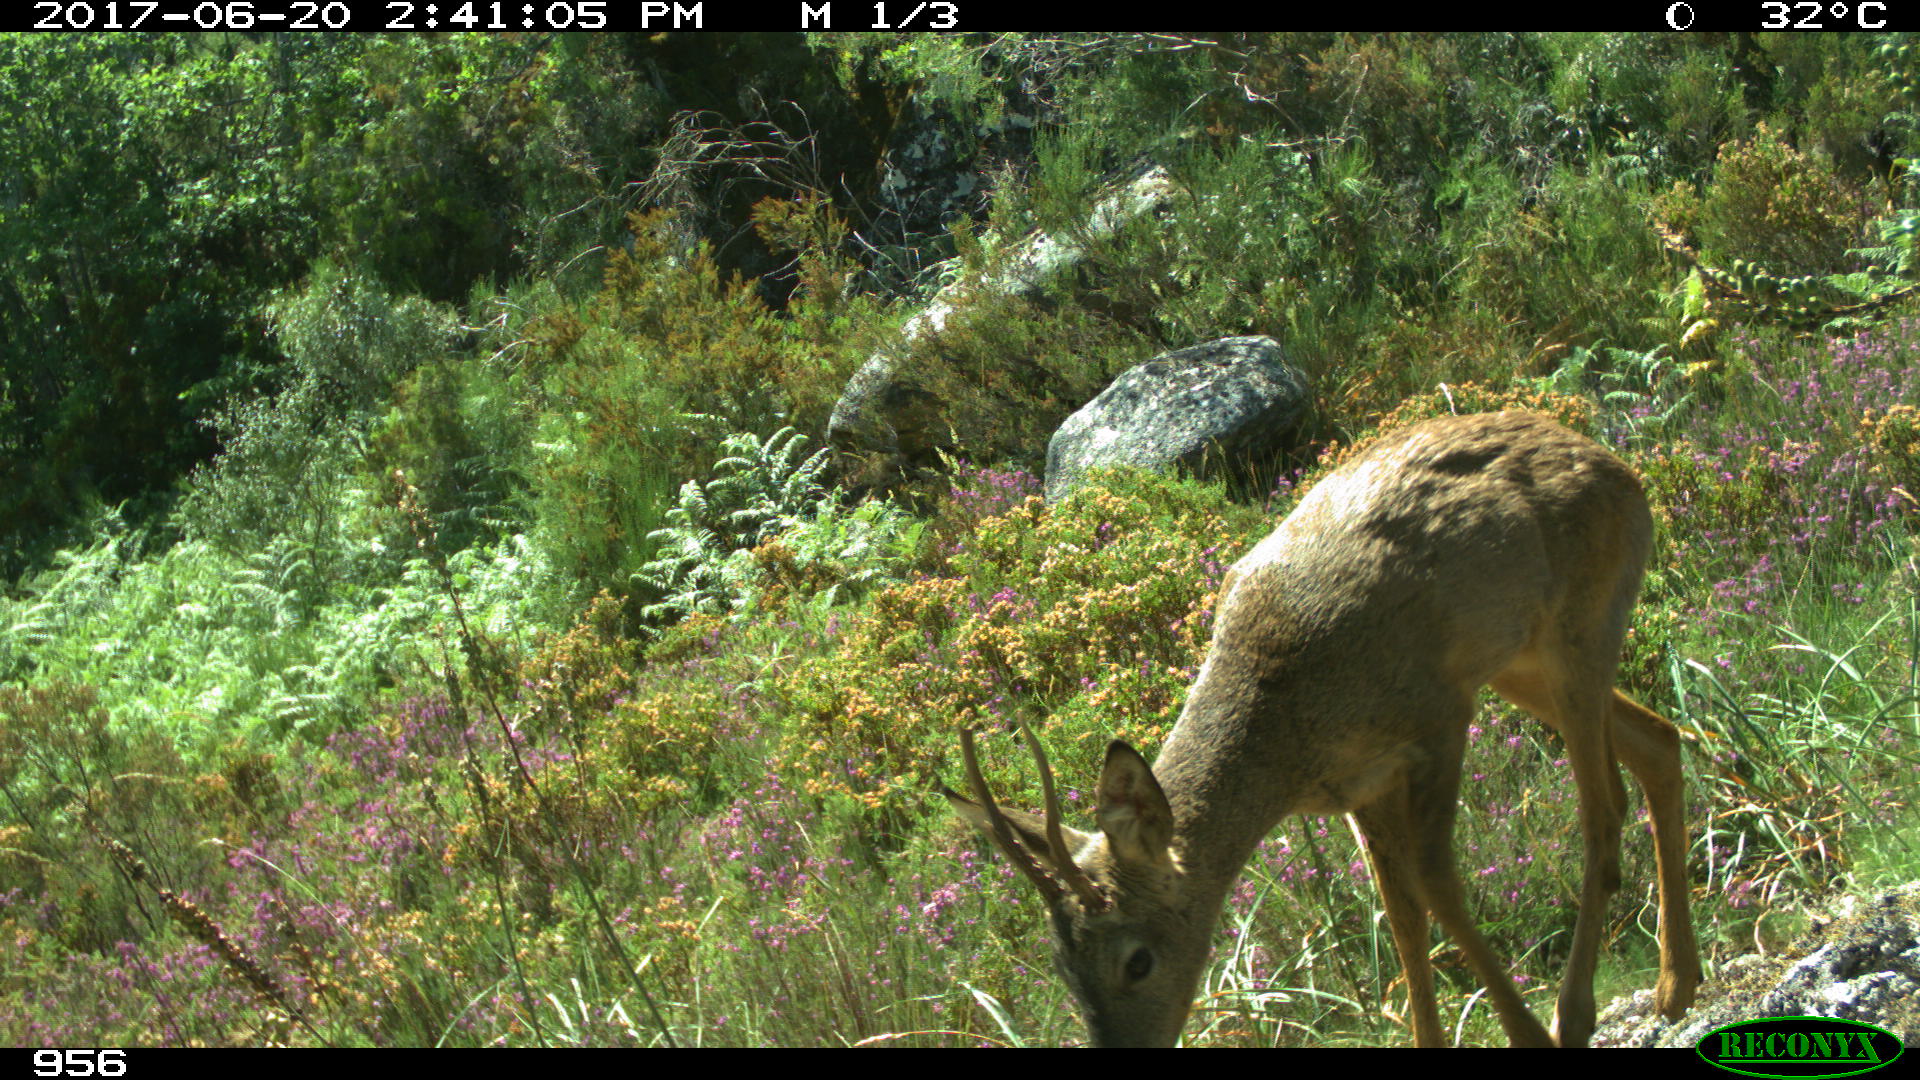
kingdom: Animalia
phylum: Chordata
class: Mammalia
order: Artiodactyla
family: Cervidae
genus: Capreolus
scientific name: Capreolus capreolus
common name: Western roe deer
